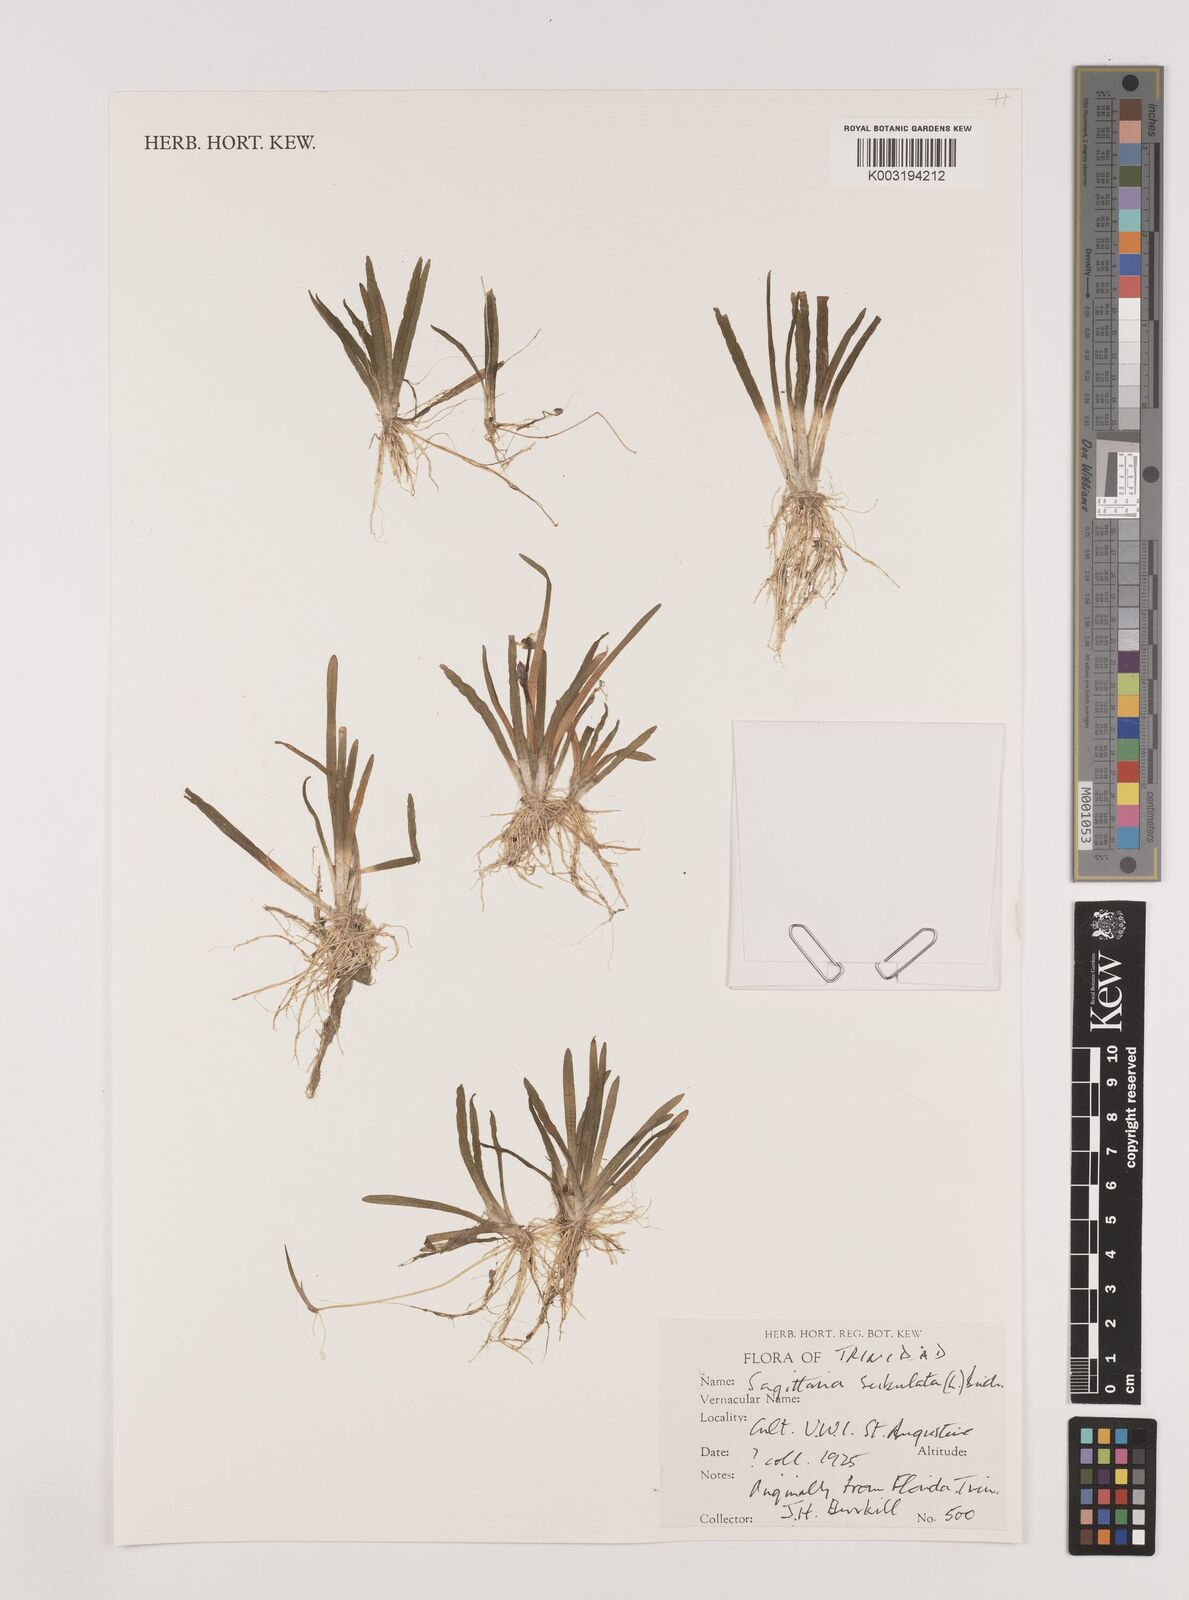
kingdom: Plantae
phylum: Tracheophyta
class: Liliopsida
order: Alismatales
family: Alismataceae
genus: Sagittaria
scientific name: Sagittaria subulata
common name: Narrow-leaved arrowhead
